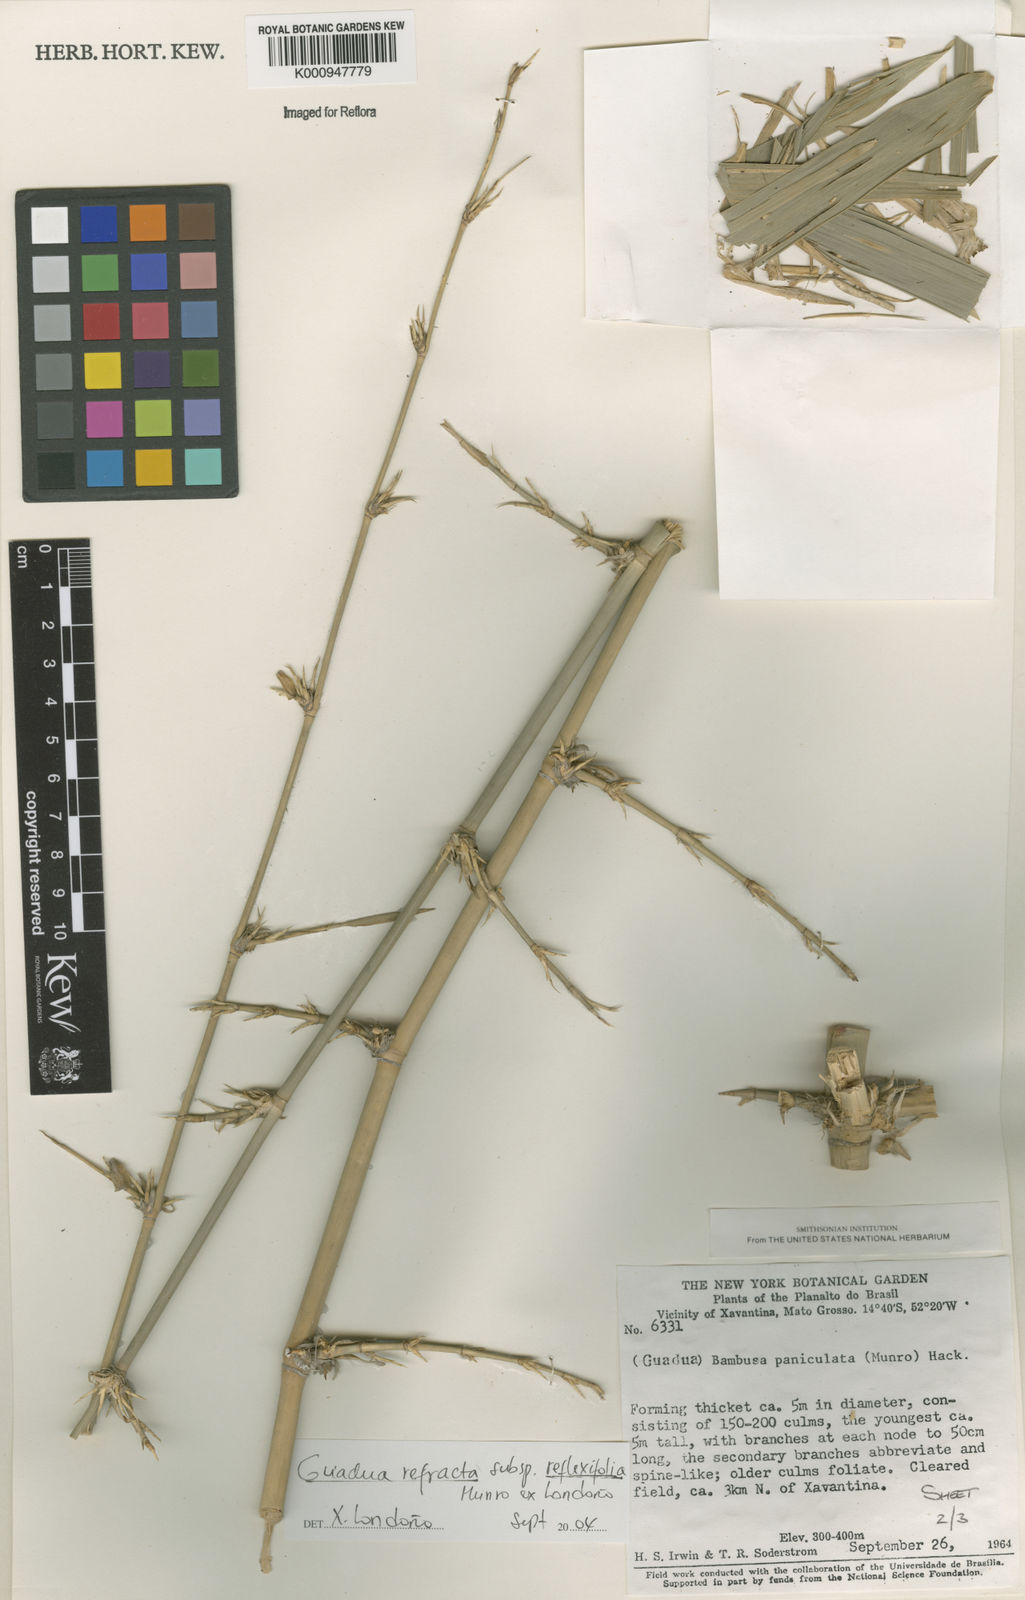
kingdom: Plantae
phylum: Tracheophyta
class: Liliopsida
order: Poales
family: Poaceae
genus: Guadua
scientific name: Guadua
